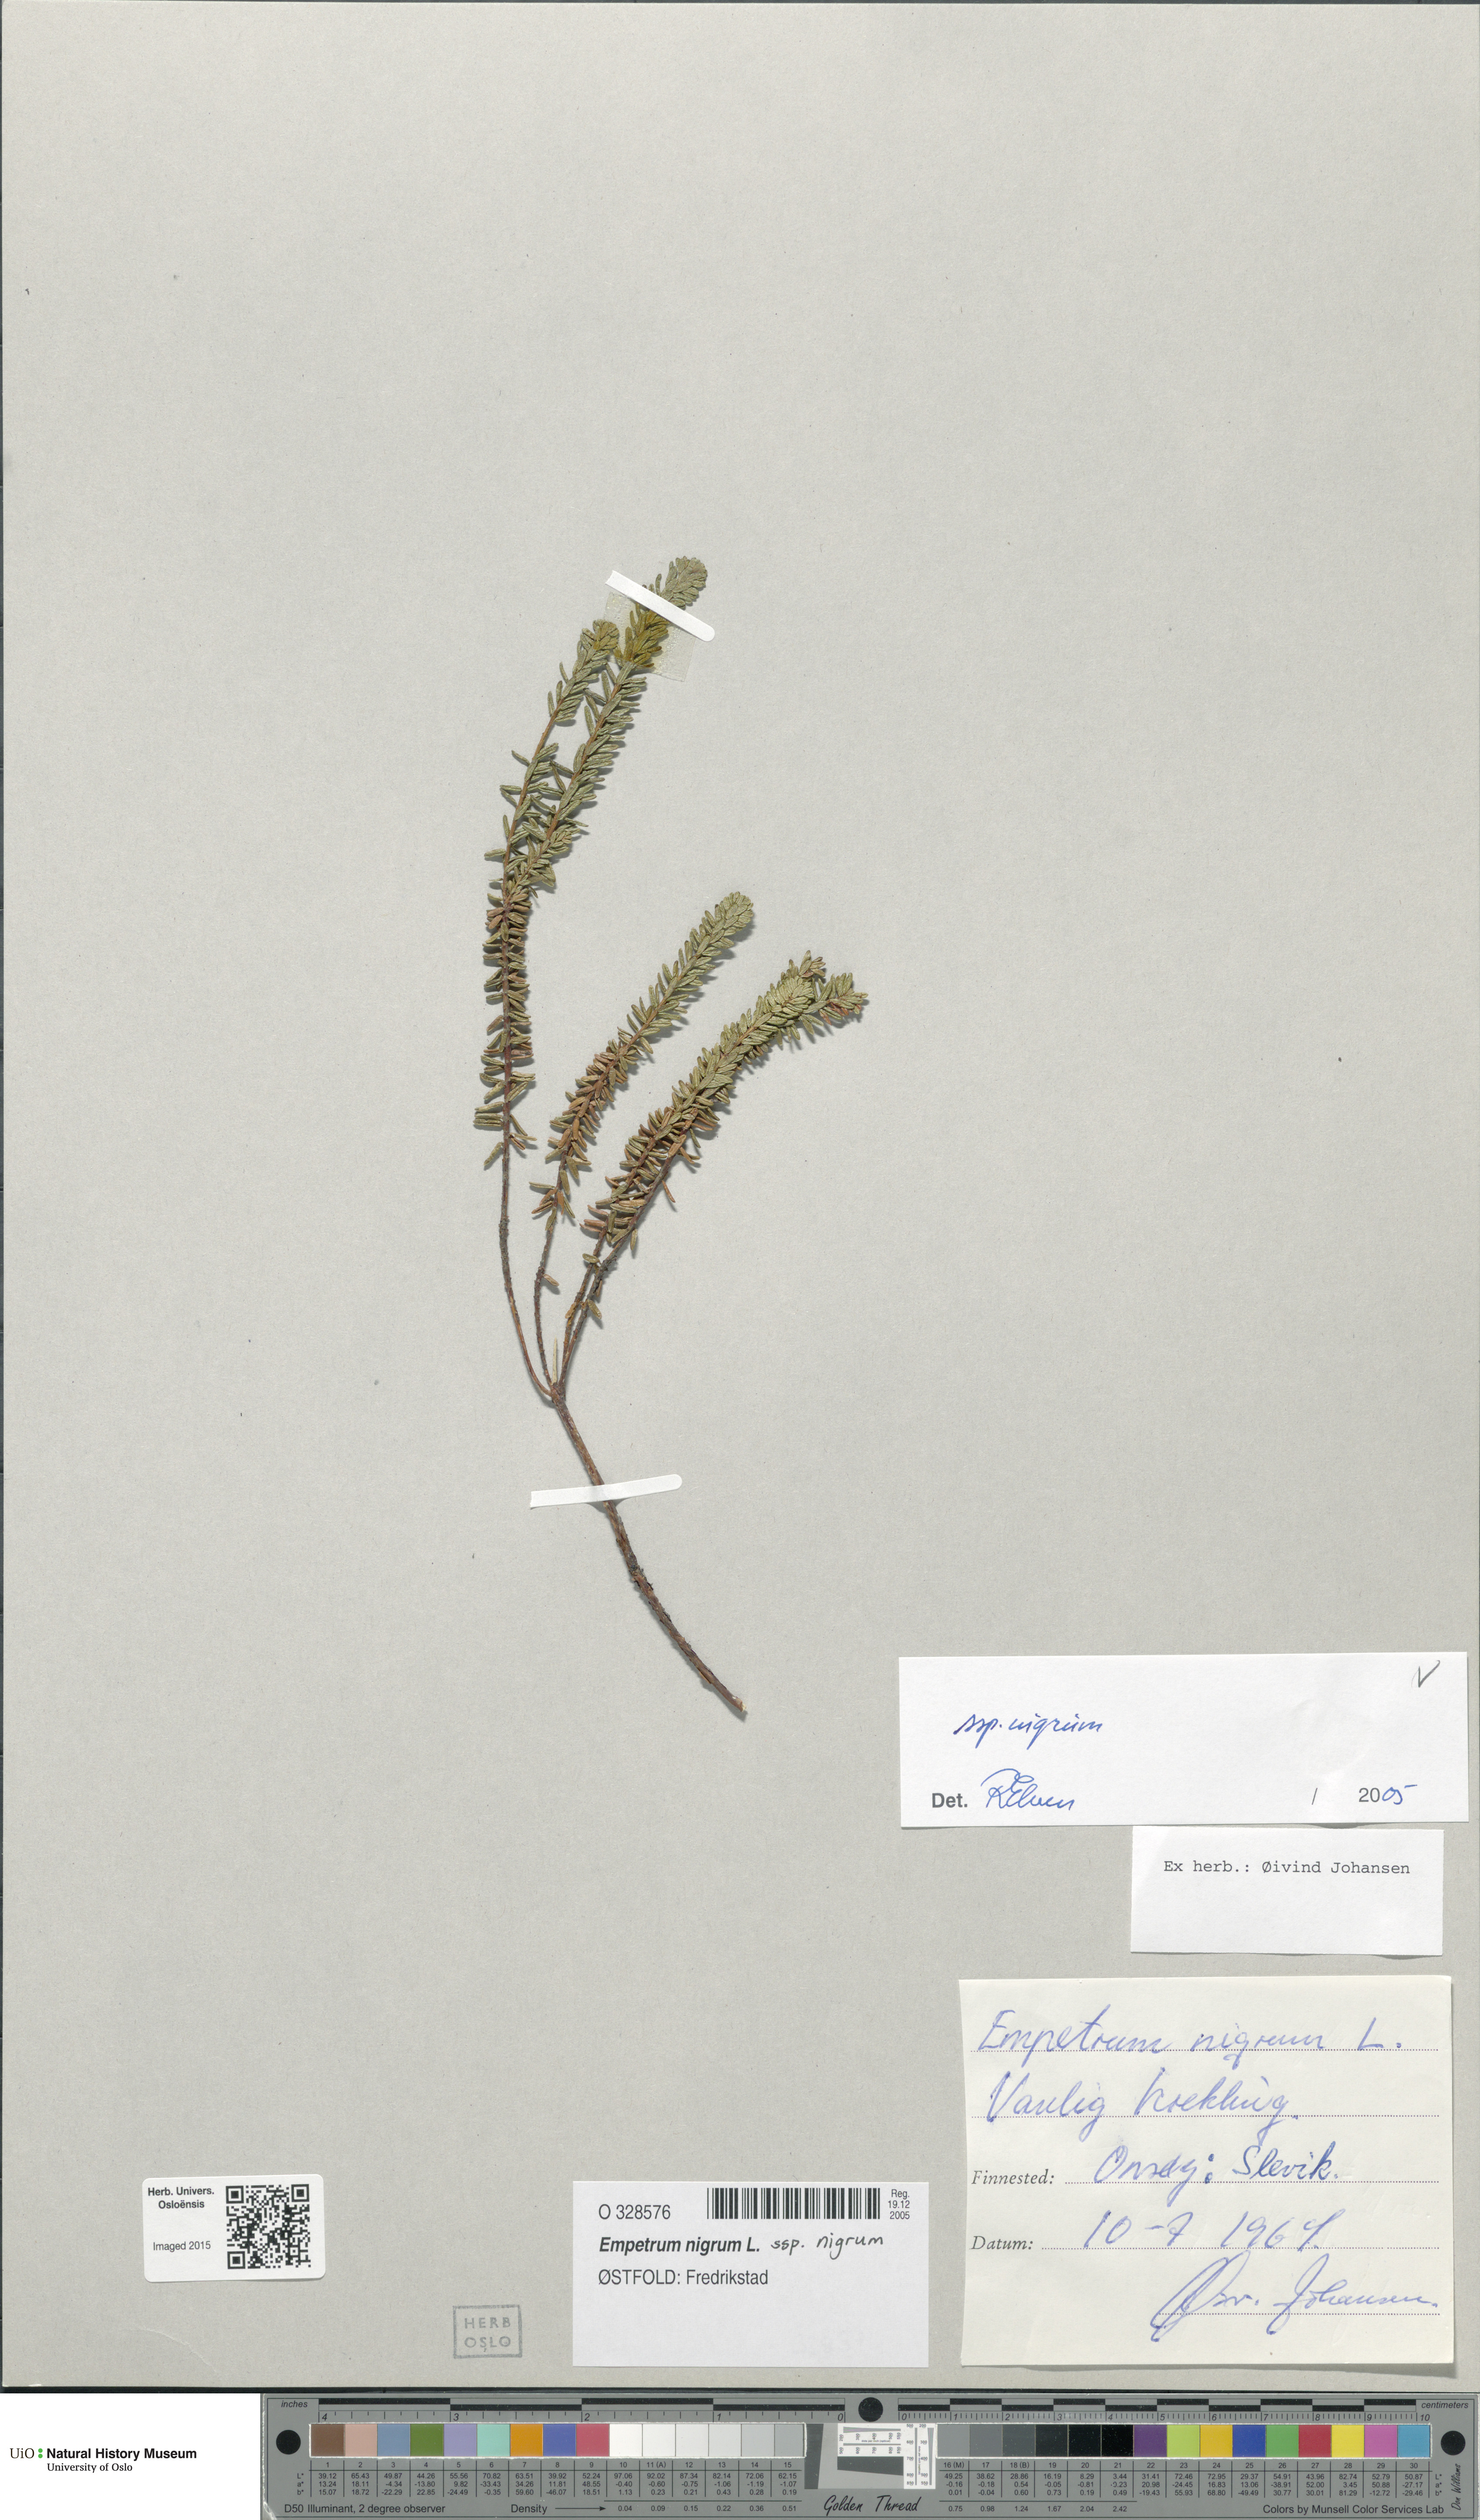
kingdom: Plantae
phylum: Tracheophyta
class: Magnoliopsida
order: Ericales
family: Ericaceae
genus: Empetrum
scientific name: Empetrum nigrum
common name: Black crowberry
